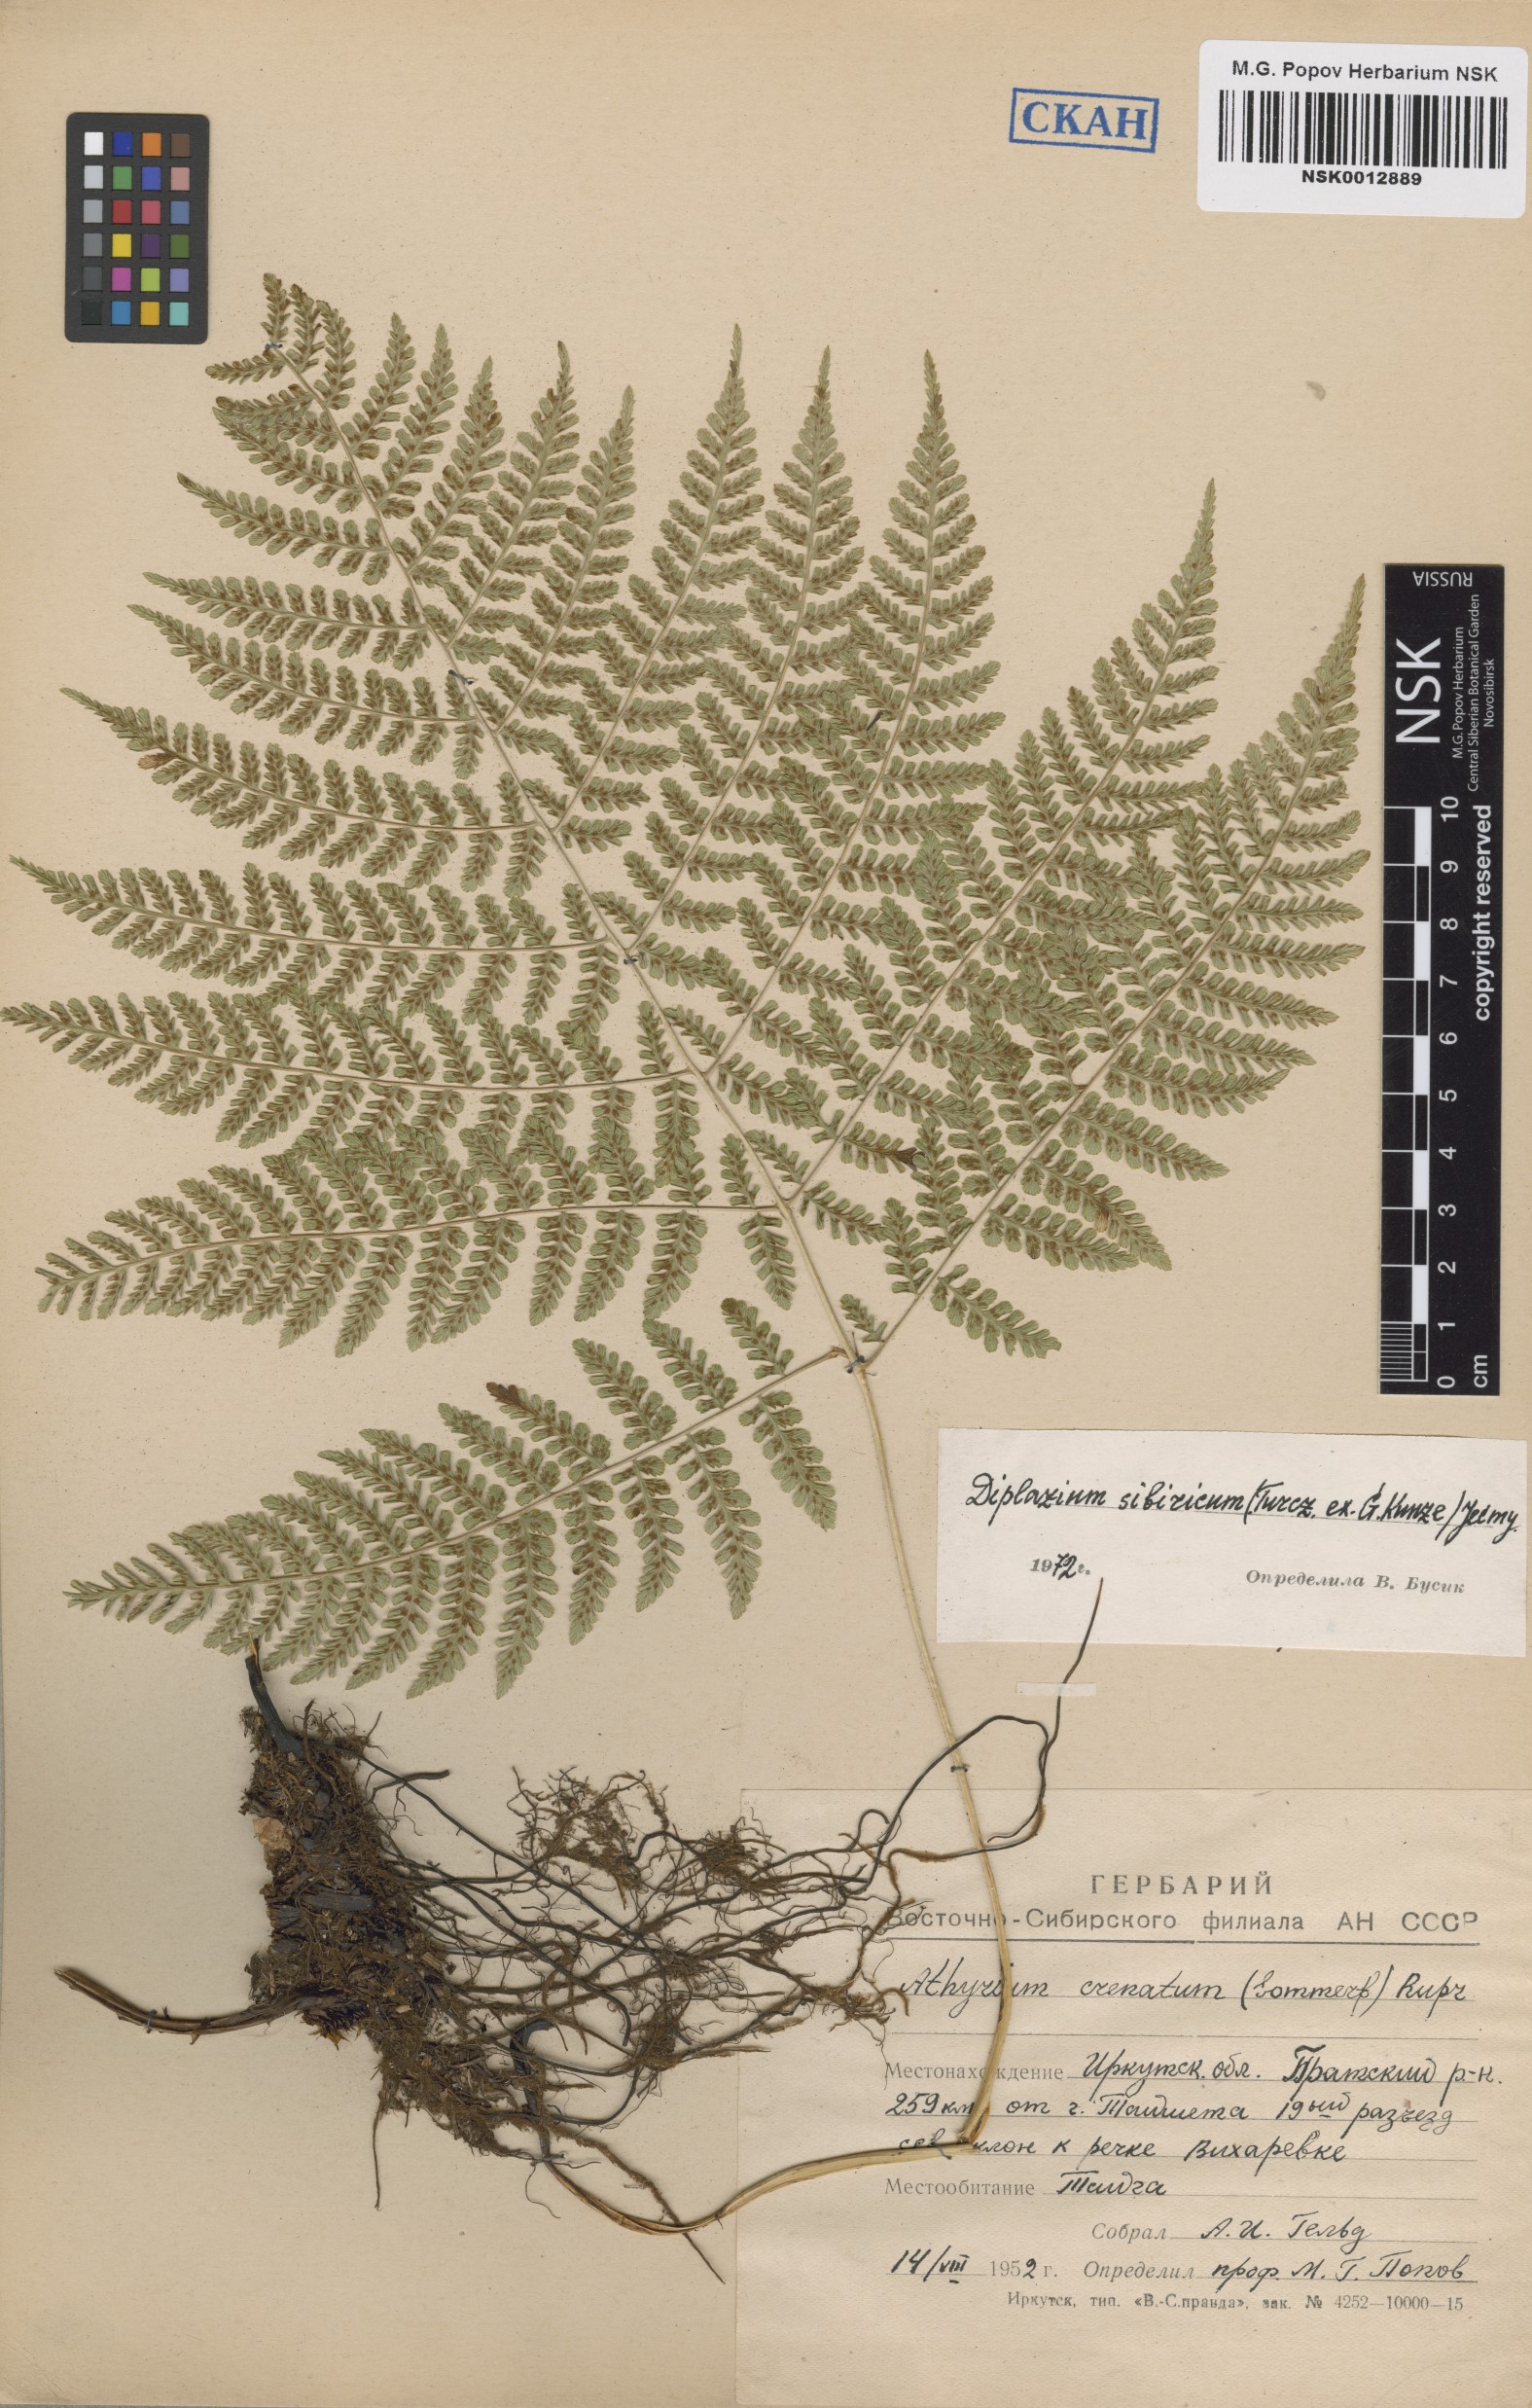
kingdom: Plantae
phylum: Tracheophyta
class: Polypodiopsida
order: Polypodiales
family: Athyriaceae
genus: Diplazium
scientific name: Diplazium sibiricum
